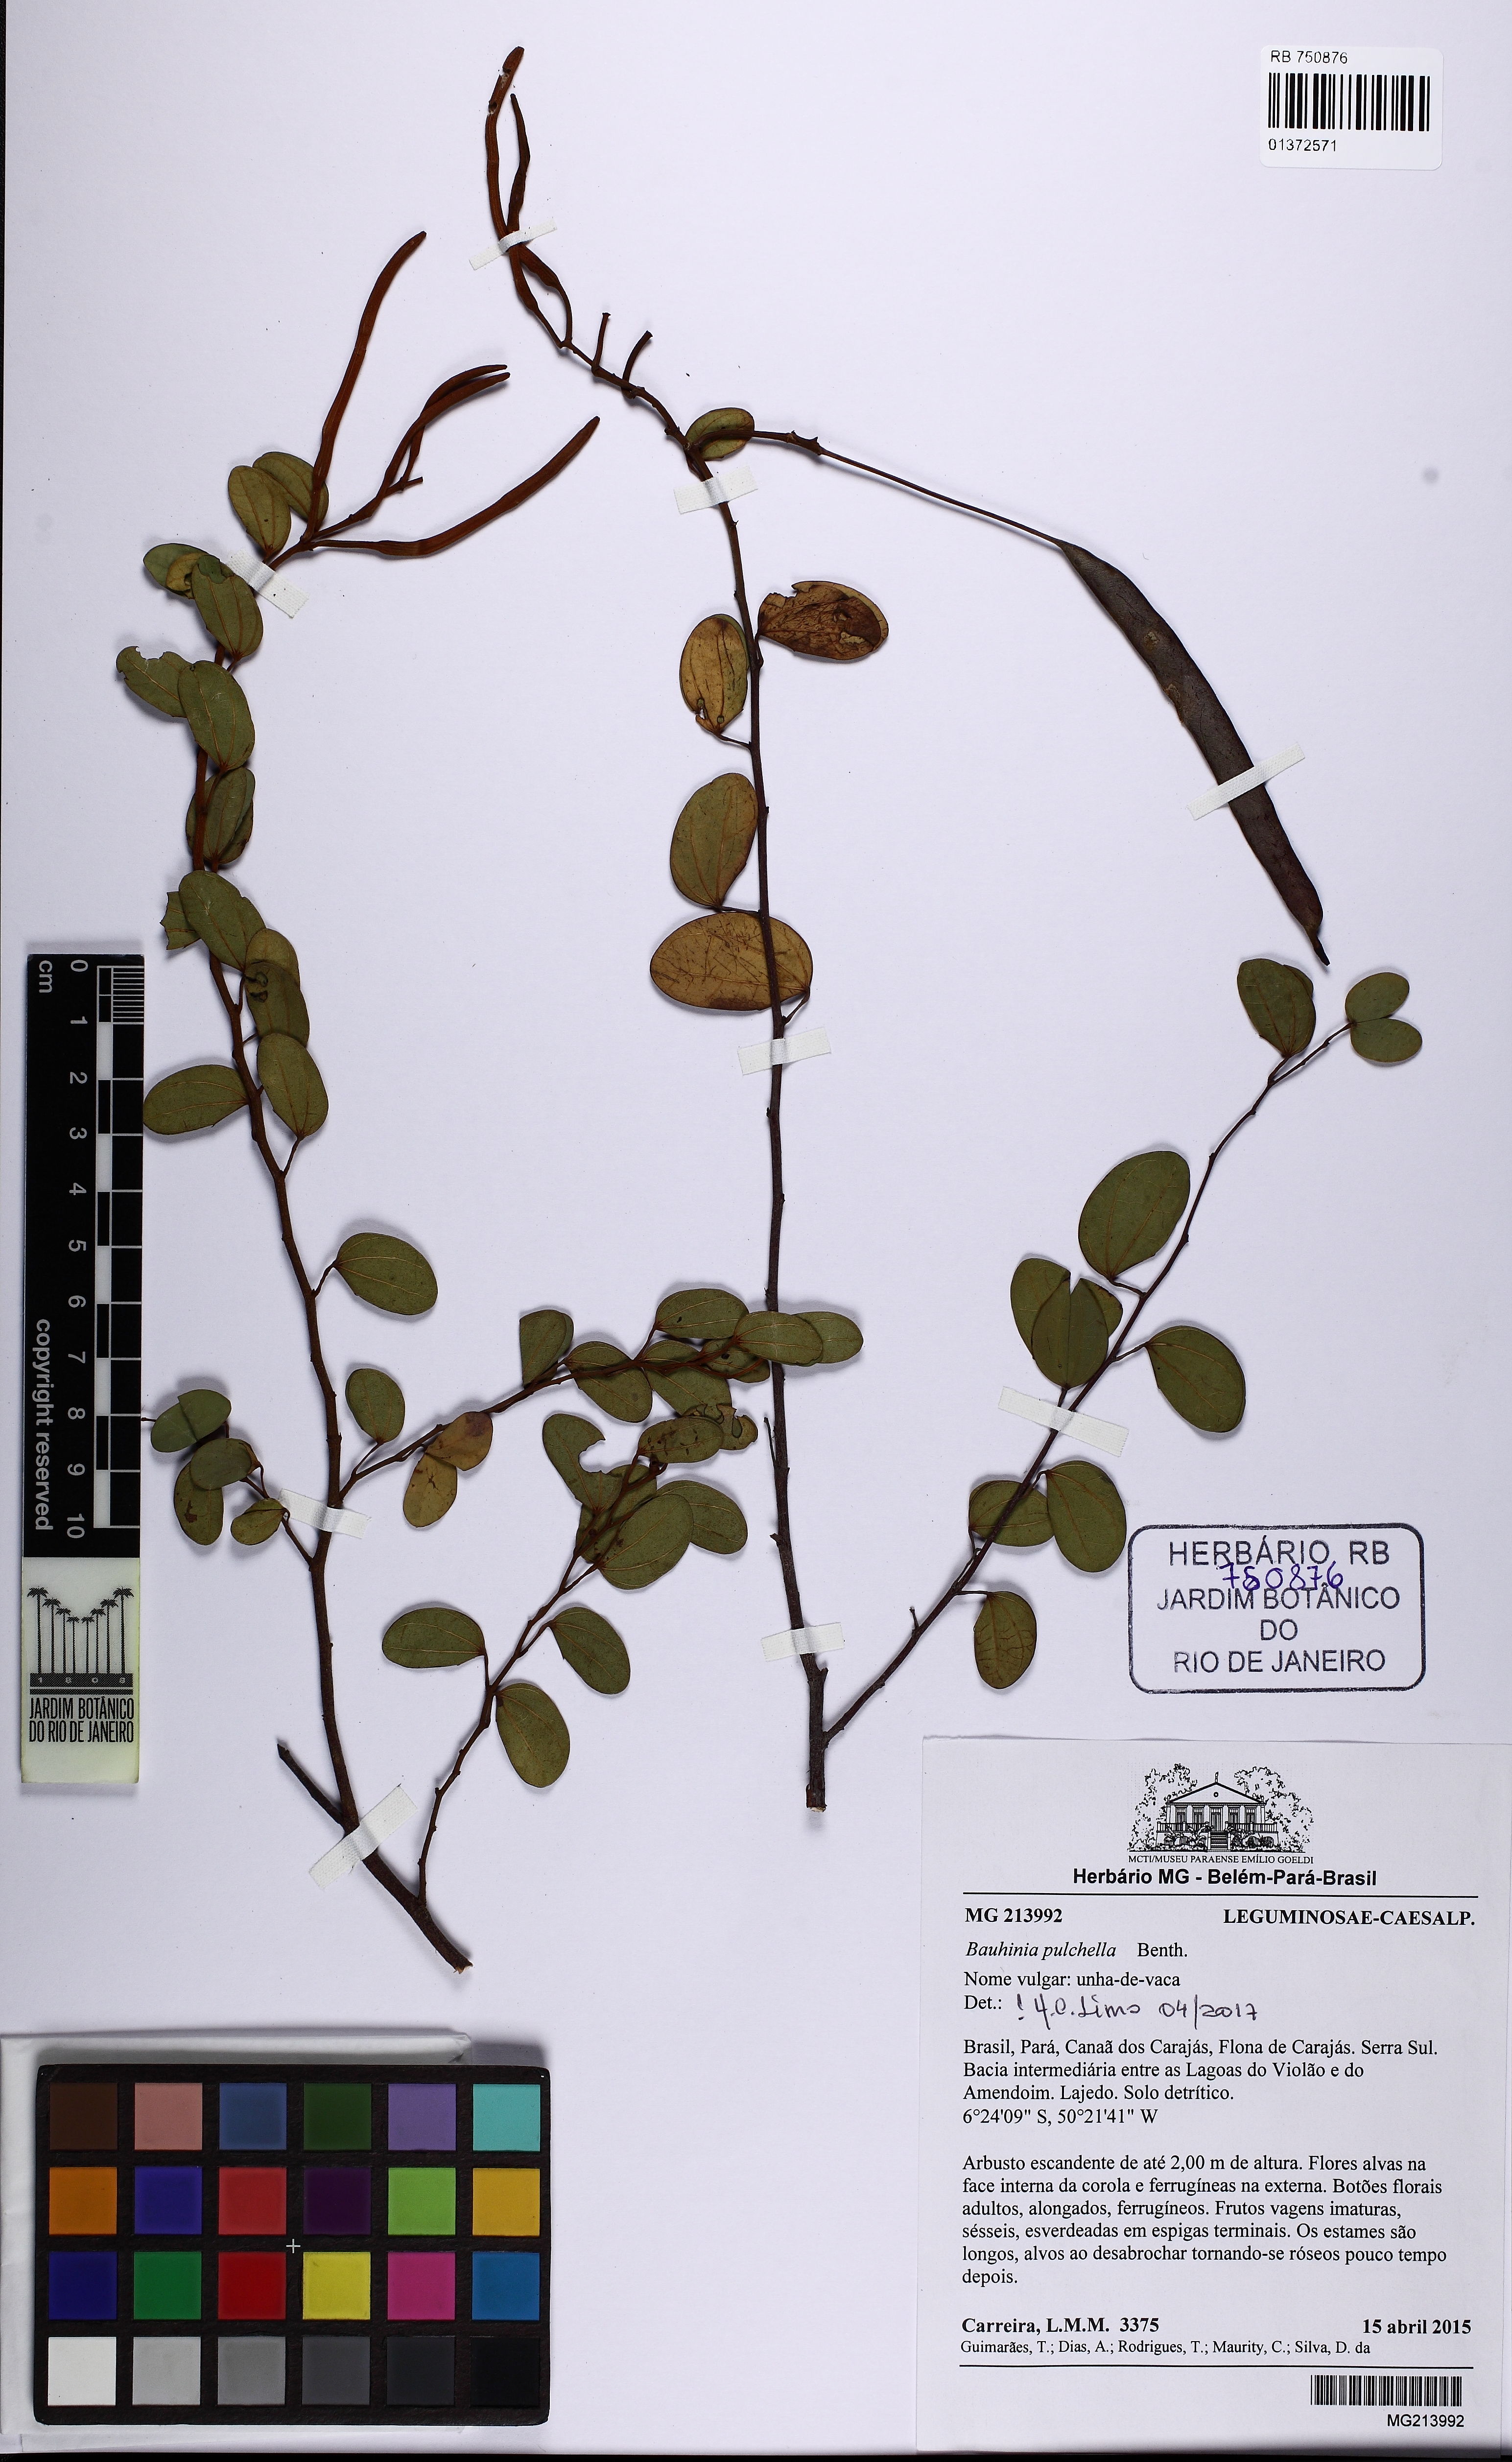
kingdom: Plantae
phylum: Tracheophyta
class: Magnoliopsida
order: Fabales
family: Fabaceae
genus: Bauhinia
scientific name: Bauhinia pulchella
